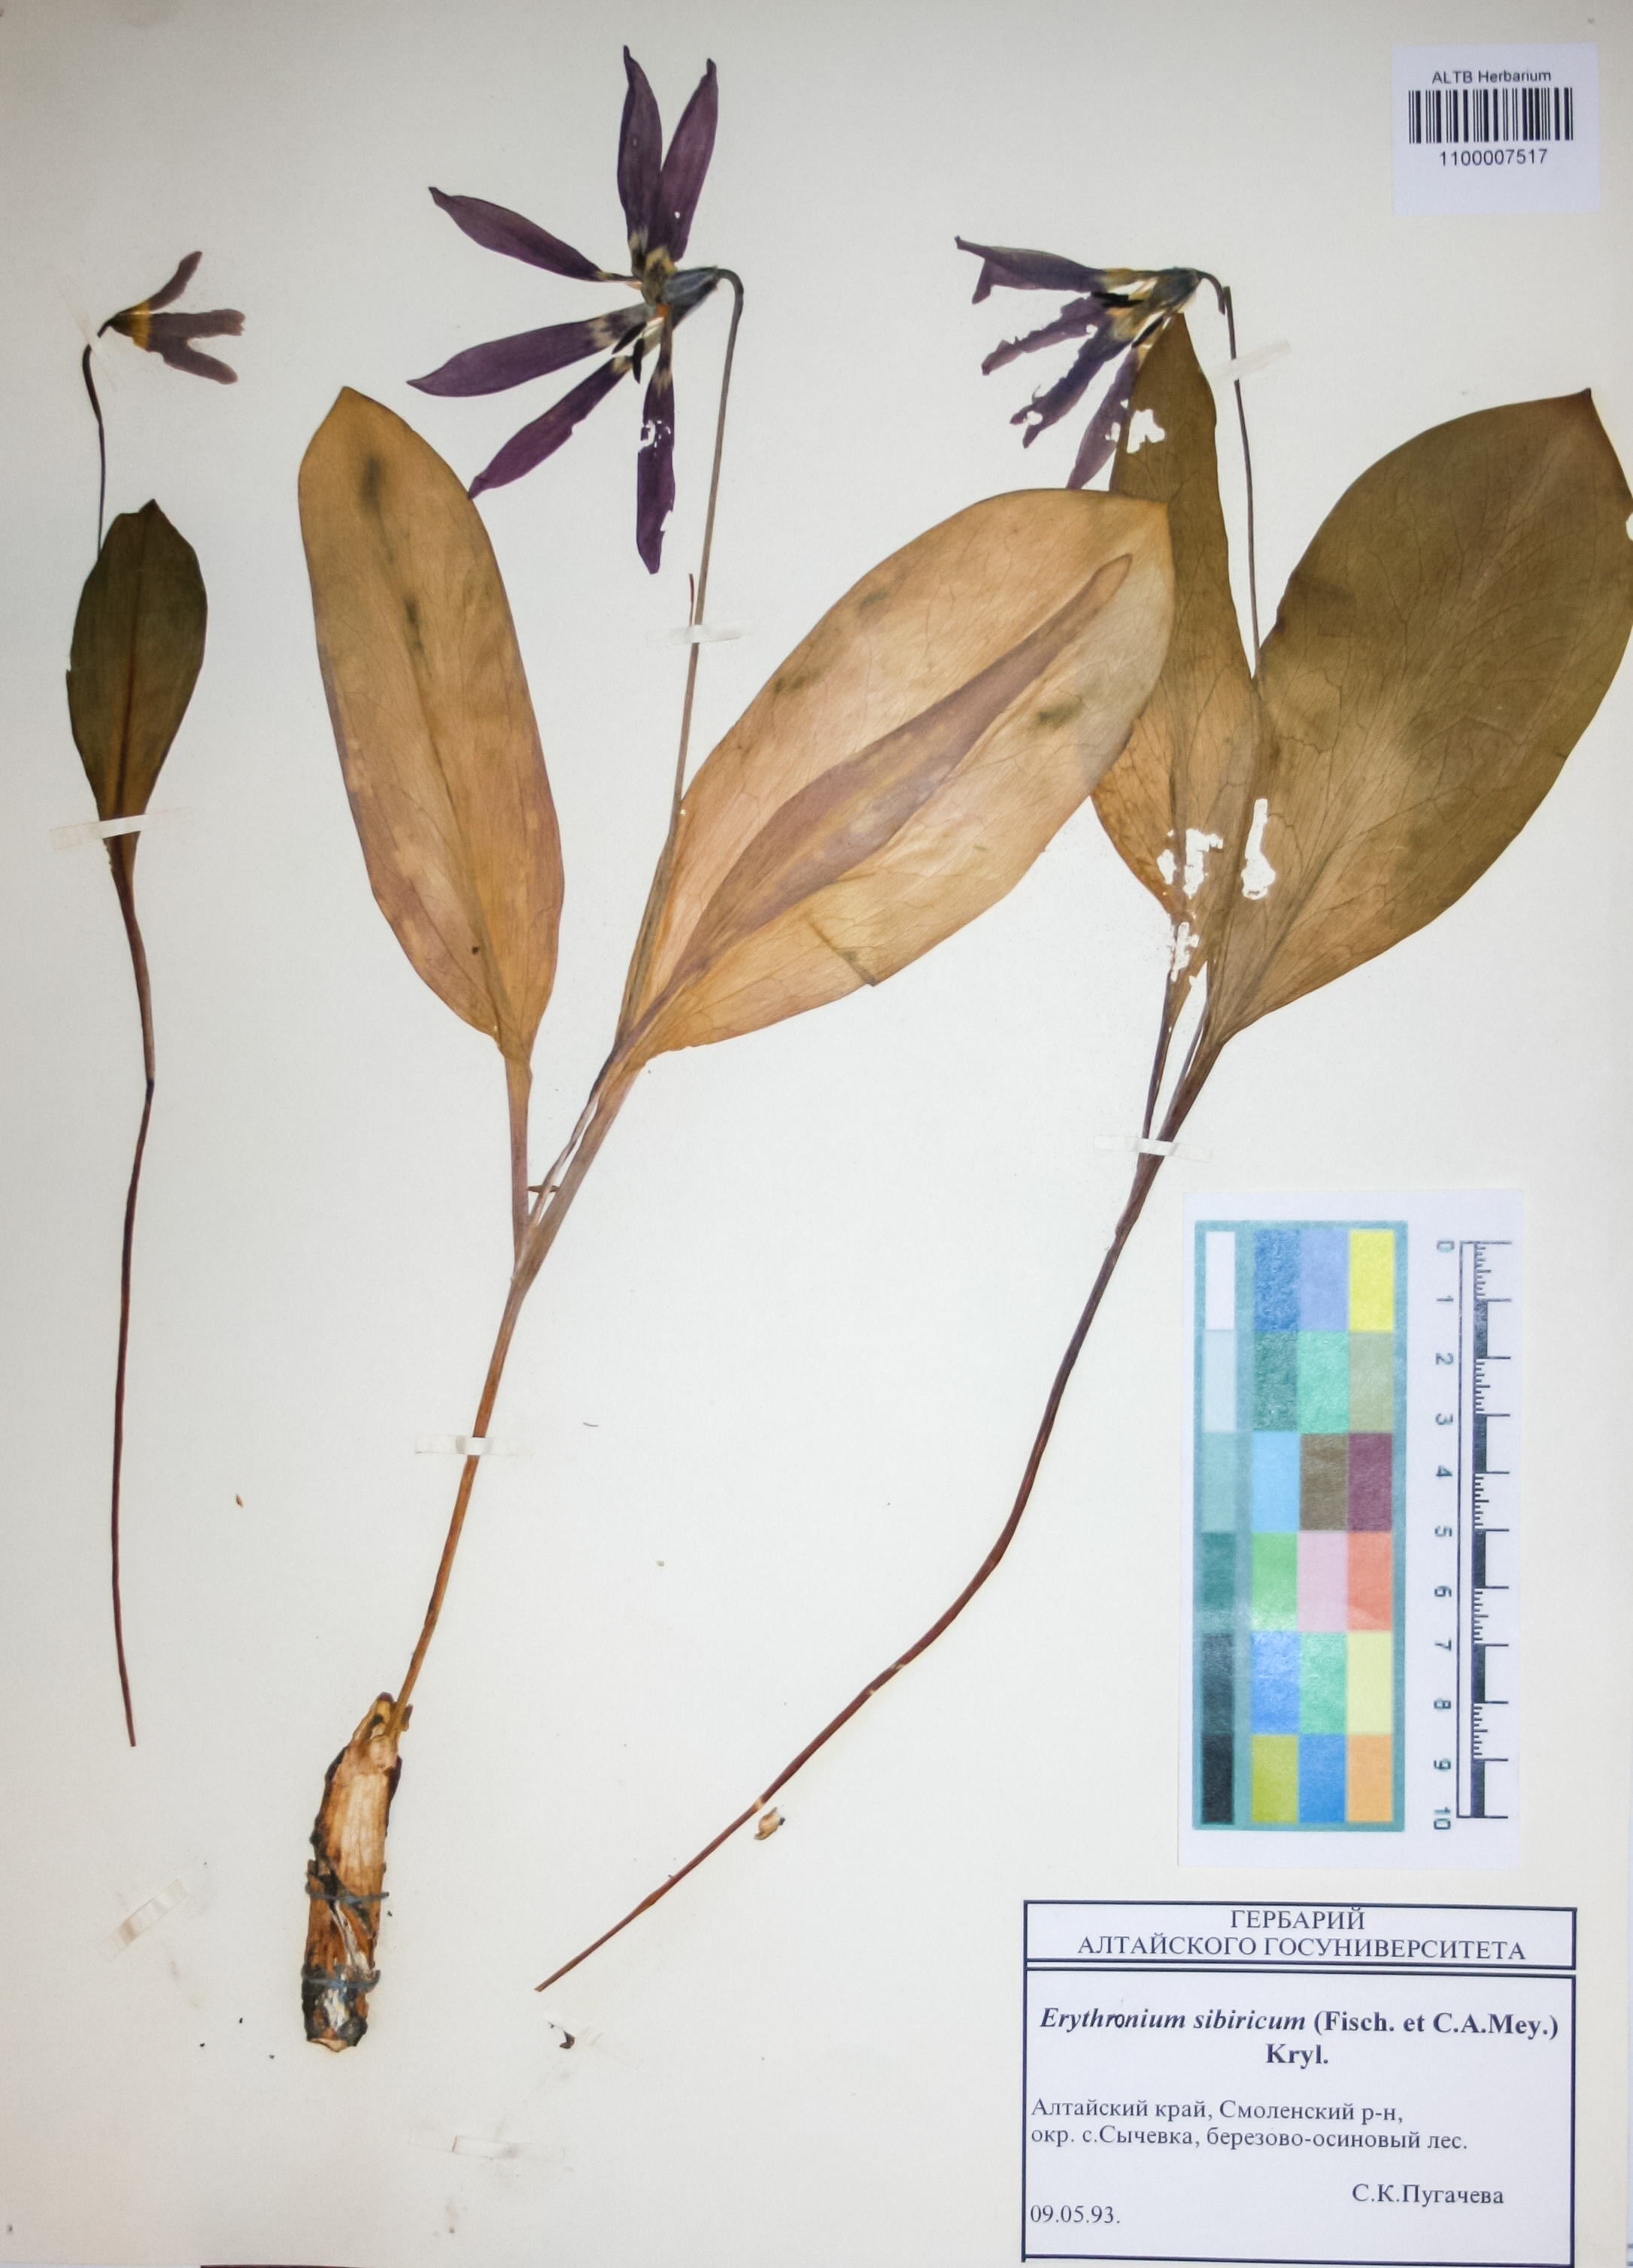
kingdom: Plantae
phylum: Tracheophyta
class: Liliopsida
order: Liliales
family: Liliaceae
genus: Erythronium
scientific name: Erythronium sibiricum
